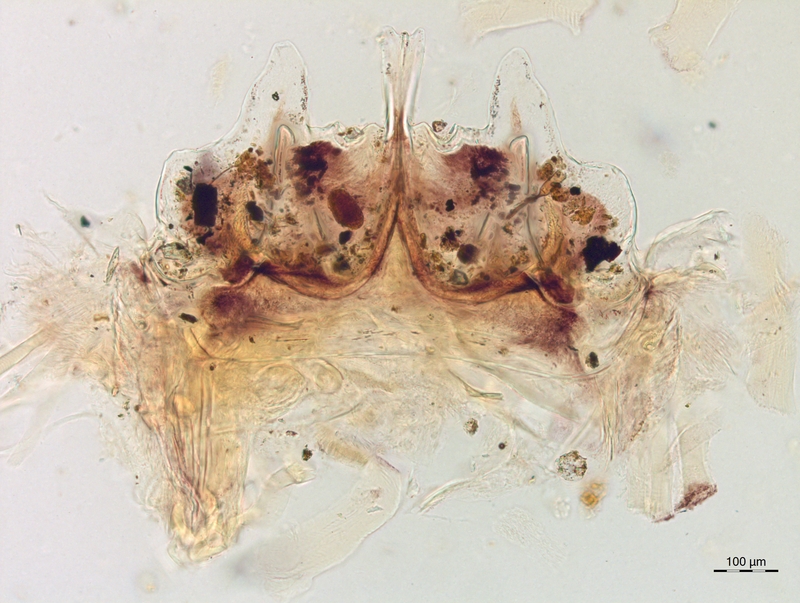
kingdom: Animalia
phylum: Arthropoda
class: Diplopoda
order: Chordeumatida
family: Craspedosomatidae
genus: Craspedosoma
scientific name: Craspedosoma rawlinsii
